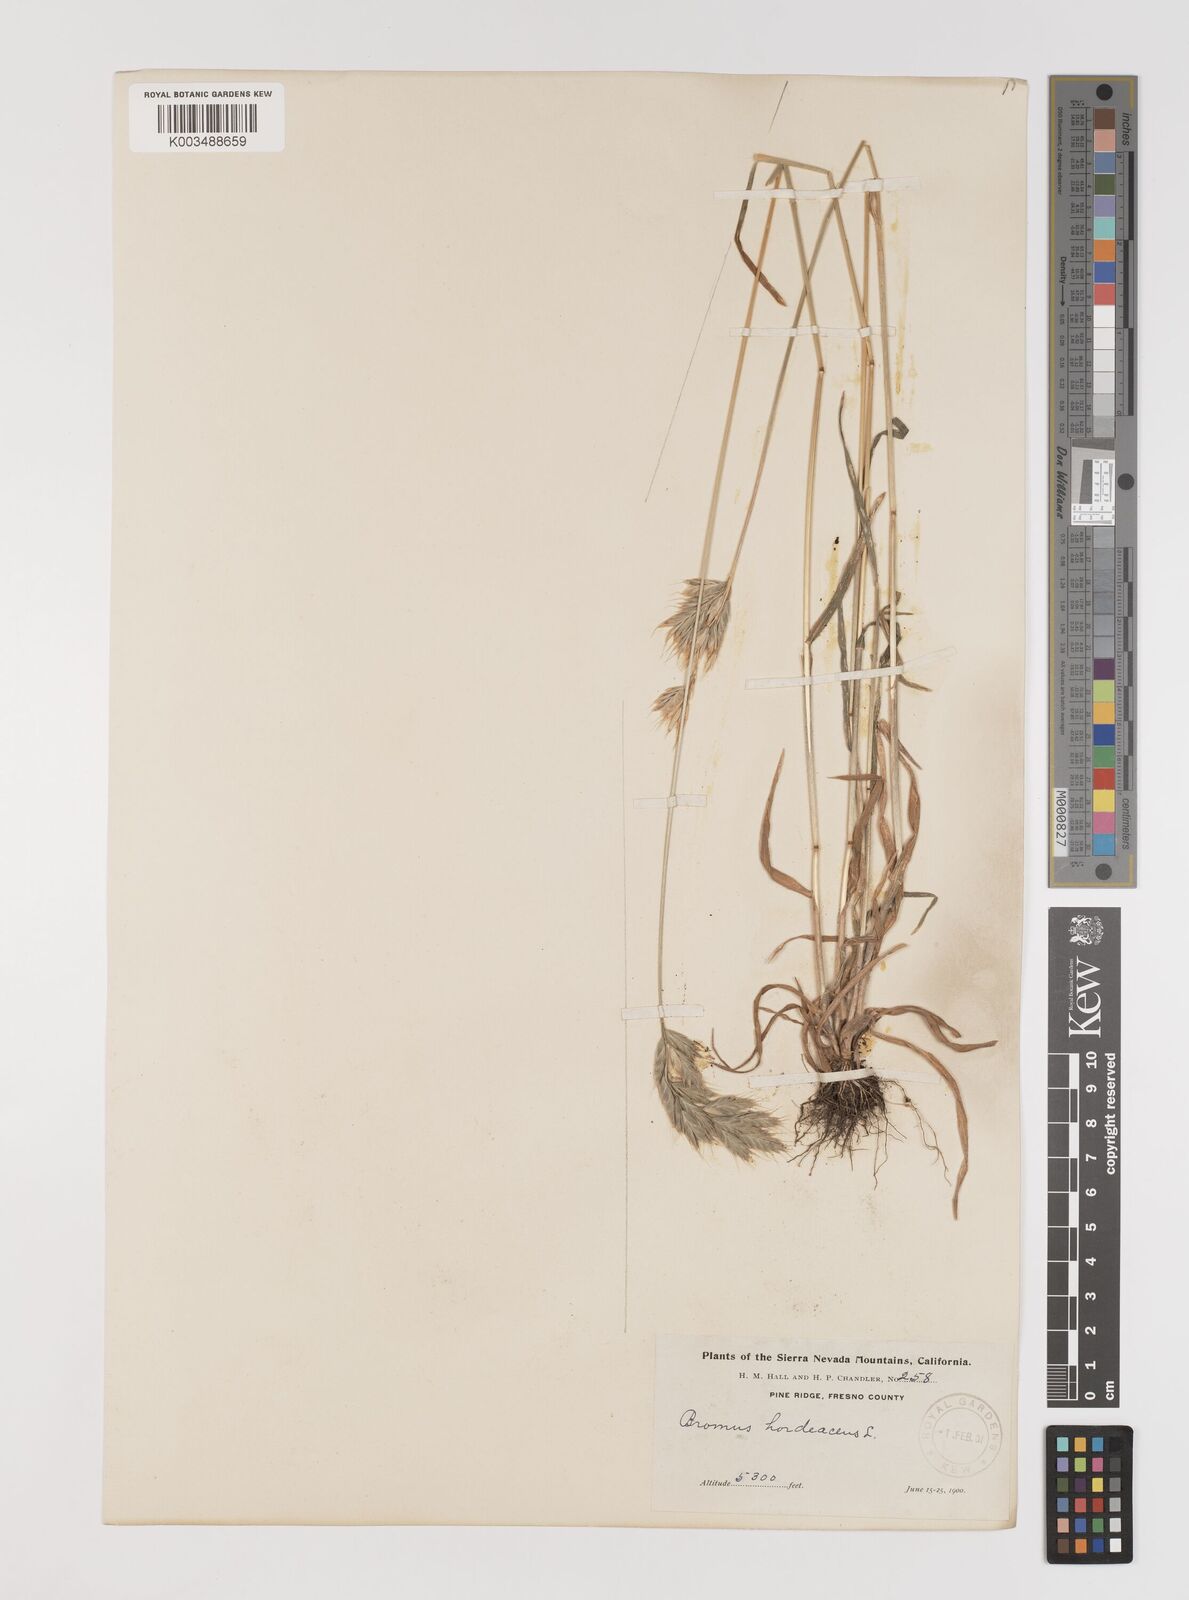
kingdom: Plantae
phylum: Tracheophyta
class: Liliopsida
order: Poales
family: Poaceae
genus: Bromus
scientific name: Bromus hordeaceus
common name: Soft brome
